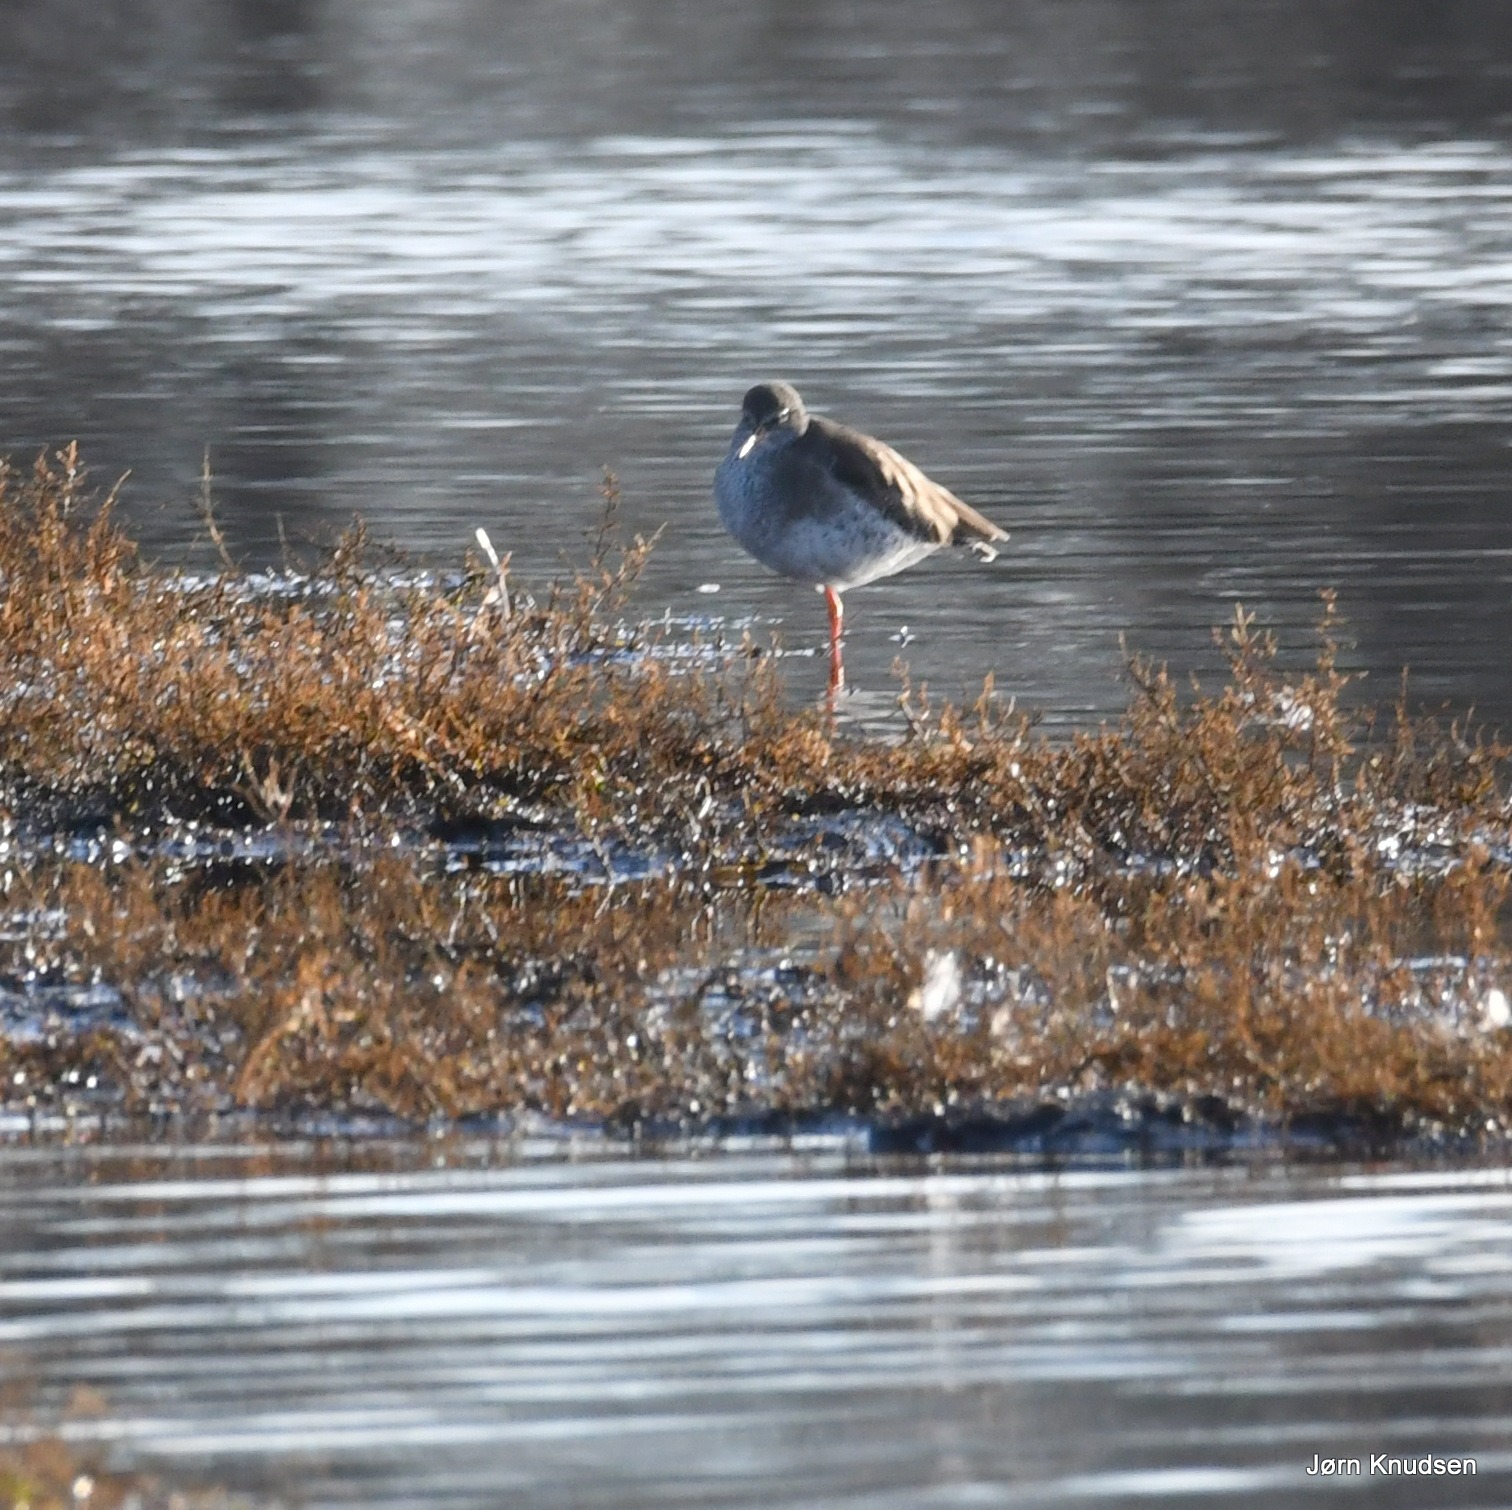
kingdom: Animalia
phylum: Chordata
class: Aves
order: Charadriiformes
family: Scolopacidae
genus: Tringa
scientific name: Tringa totanus
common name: Rødben
